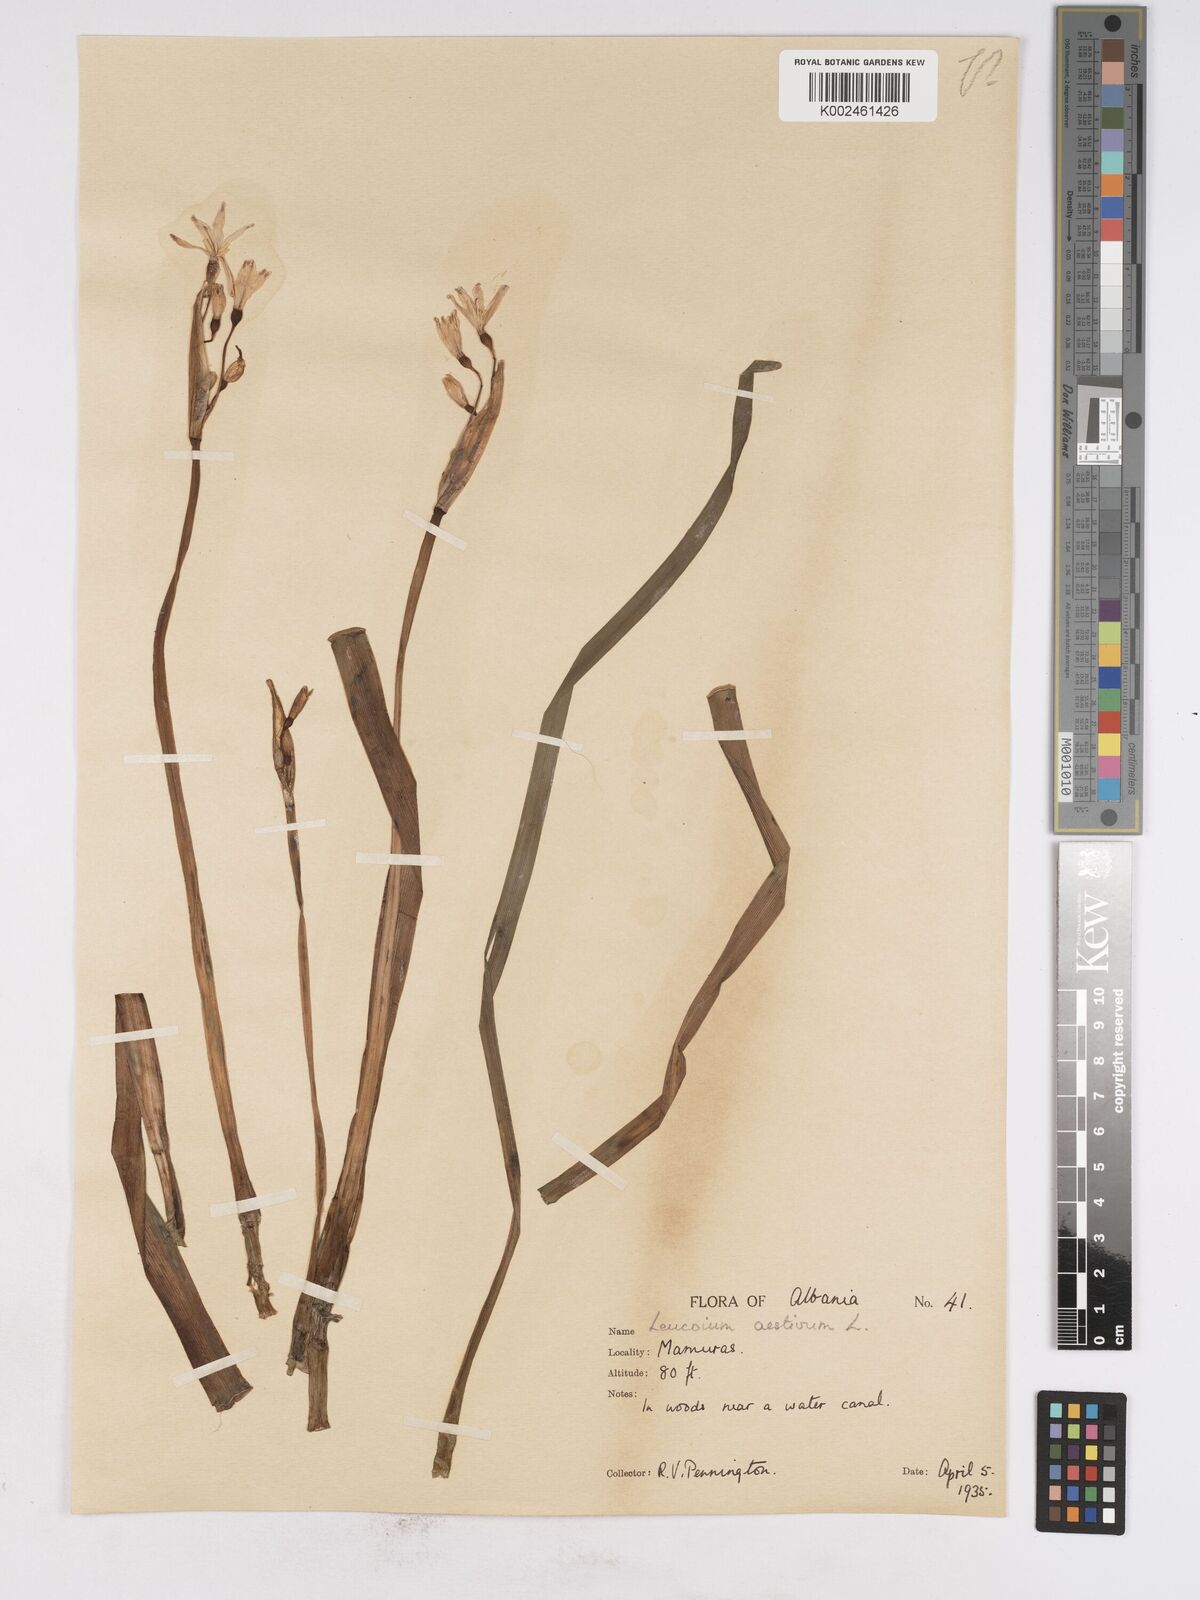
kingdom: Plantae
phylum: Tracheophyta
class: Liliopsida
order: Asparagales
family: Amaryllidaceae
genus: Leucojum
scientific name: Leucojum aestivum
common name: Summer snowflake
